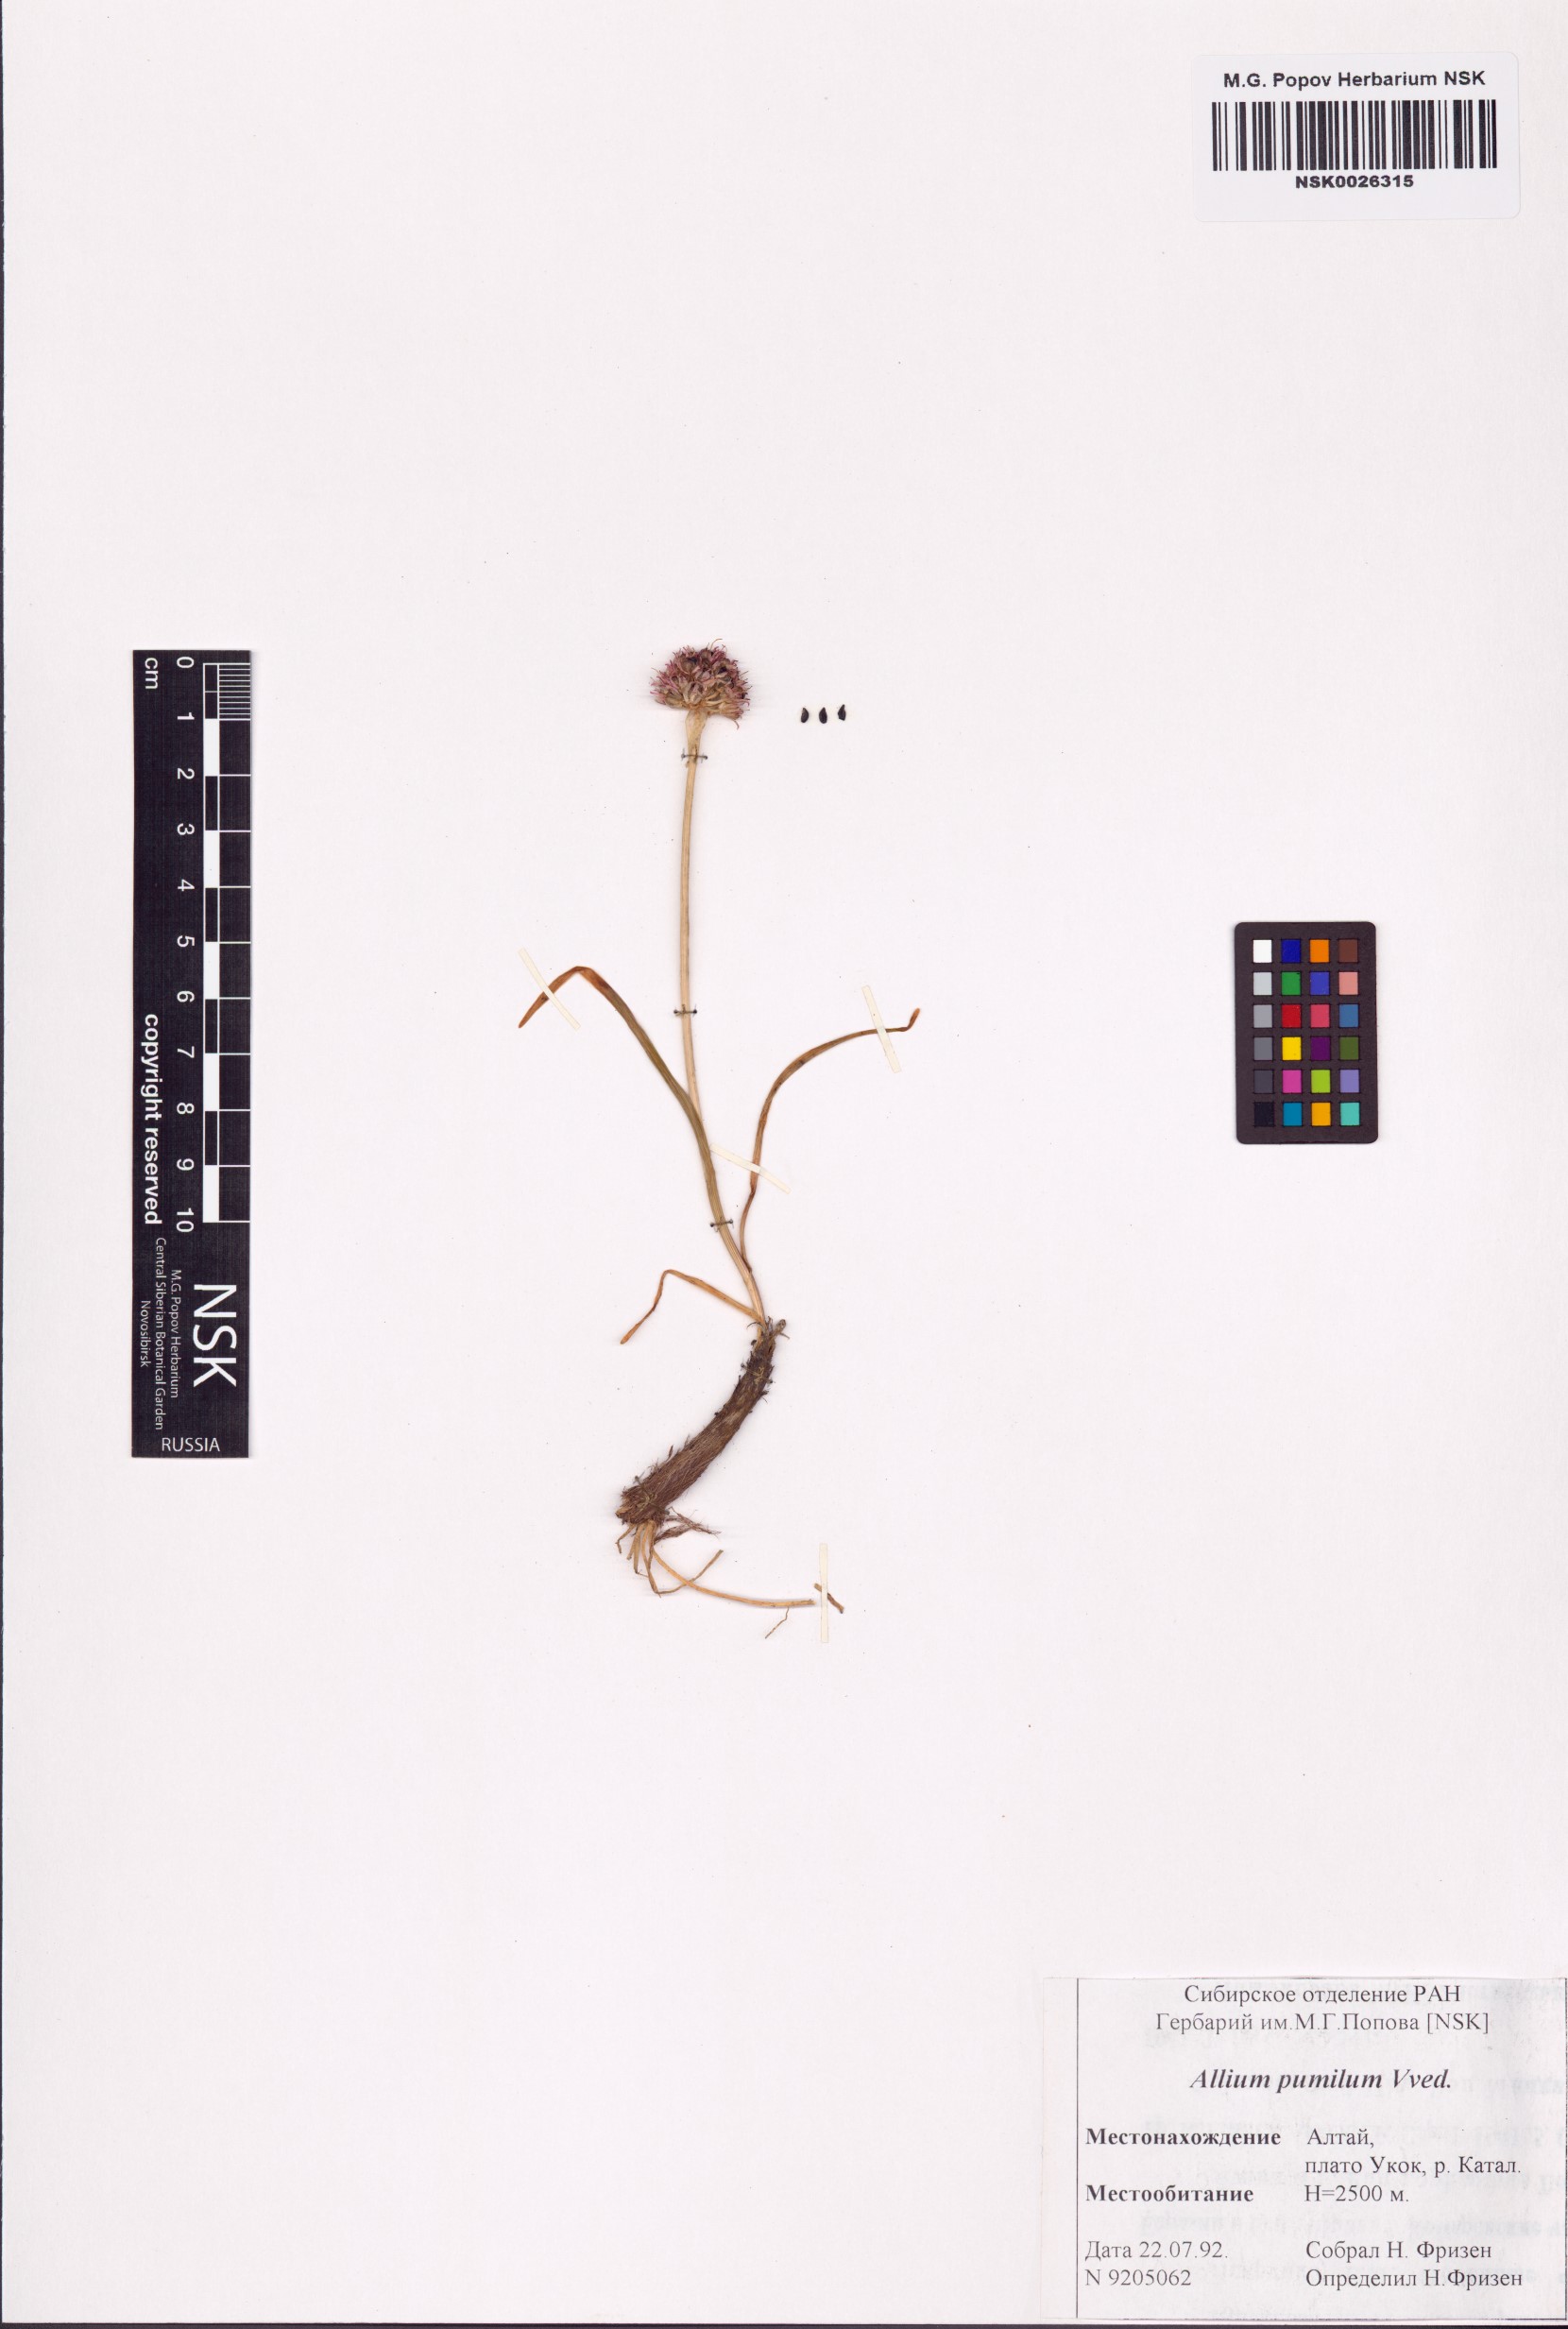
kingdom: Plantae
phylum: Tracheophyta
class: Liliopsida
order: Asparagales
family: Amaryllidaceae
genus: Allium
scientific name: Allium pumilum
